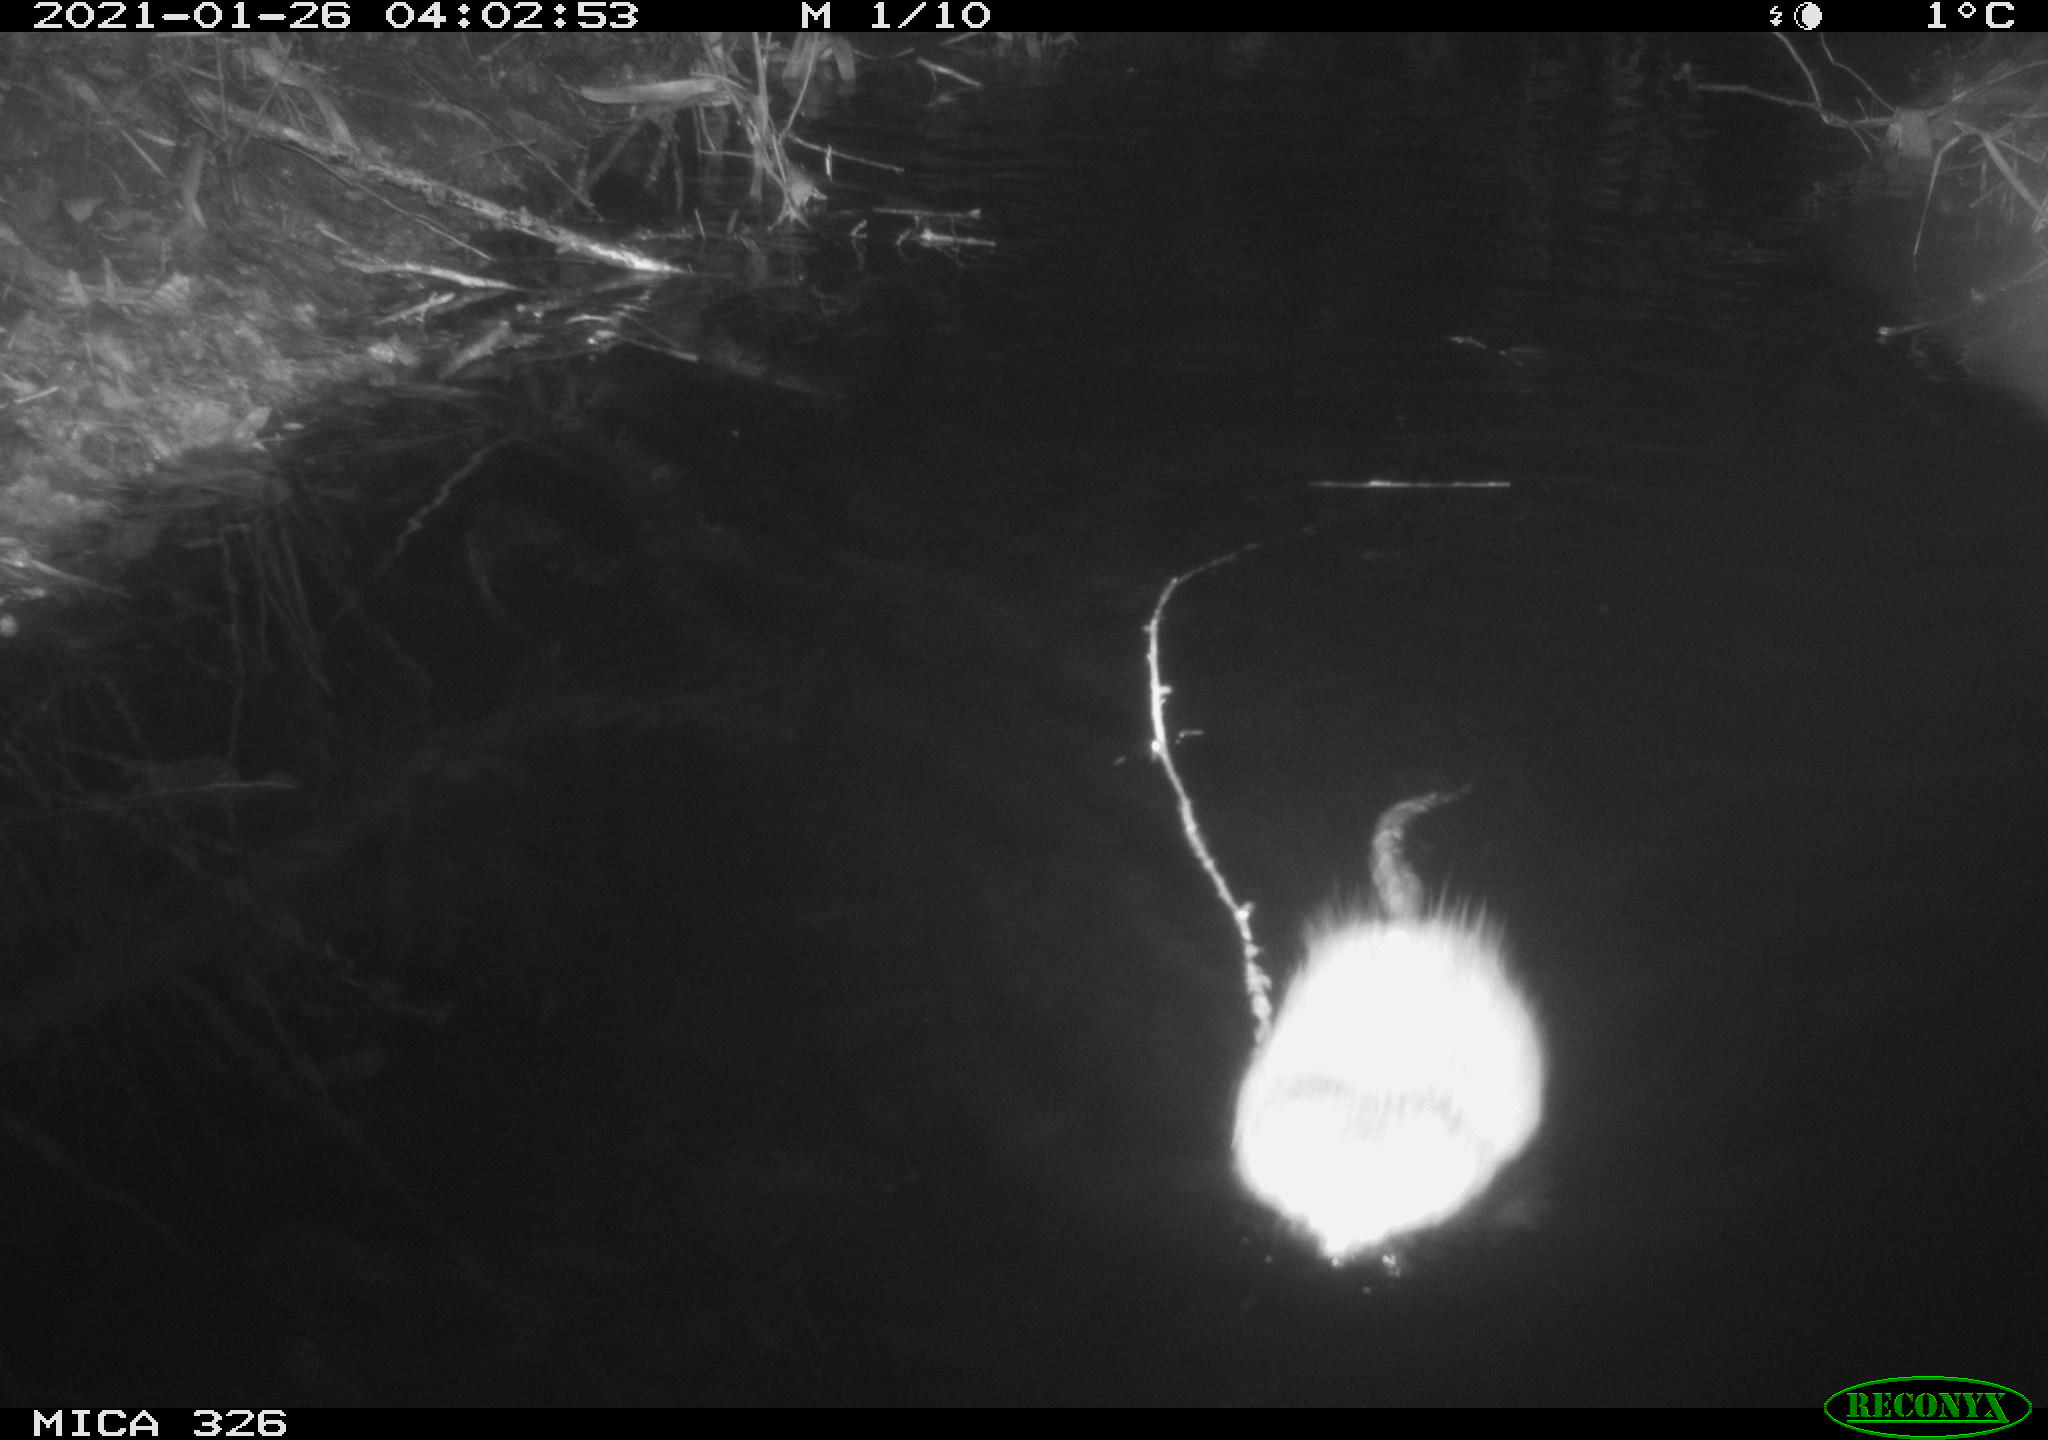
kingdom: Animalia
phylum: Chordata
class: Mammalia
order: Rodentia
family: Cricetidae
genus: Ondatra
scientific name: Ondatra zibethicus
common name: Muskrat
